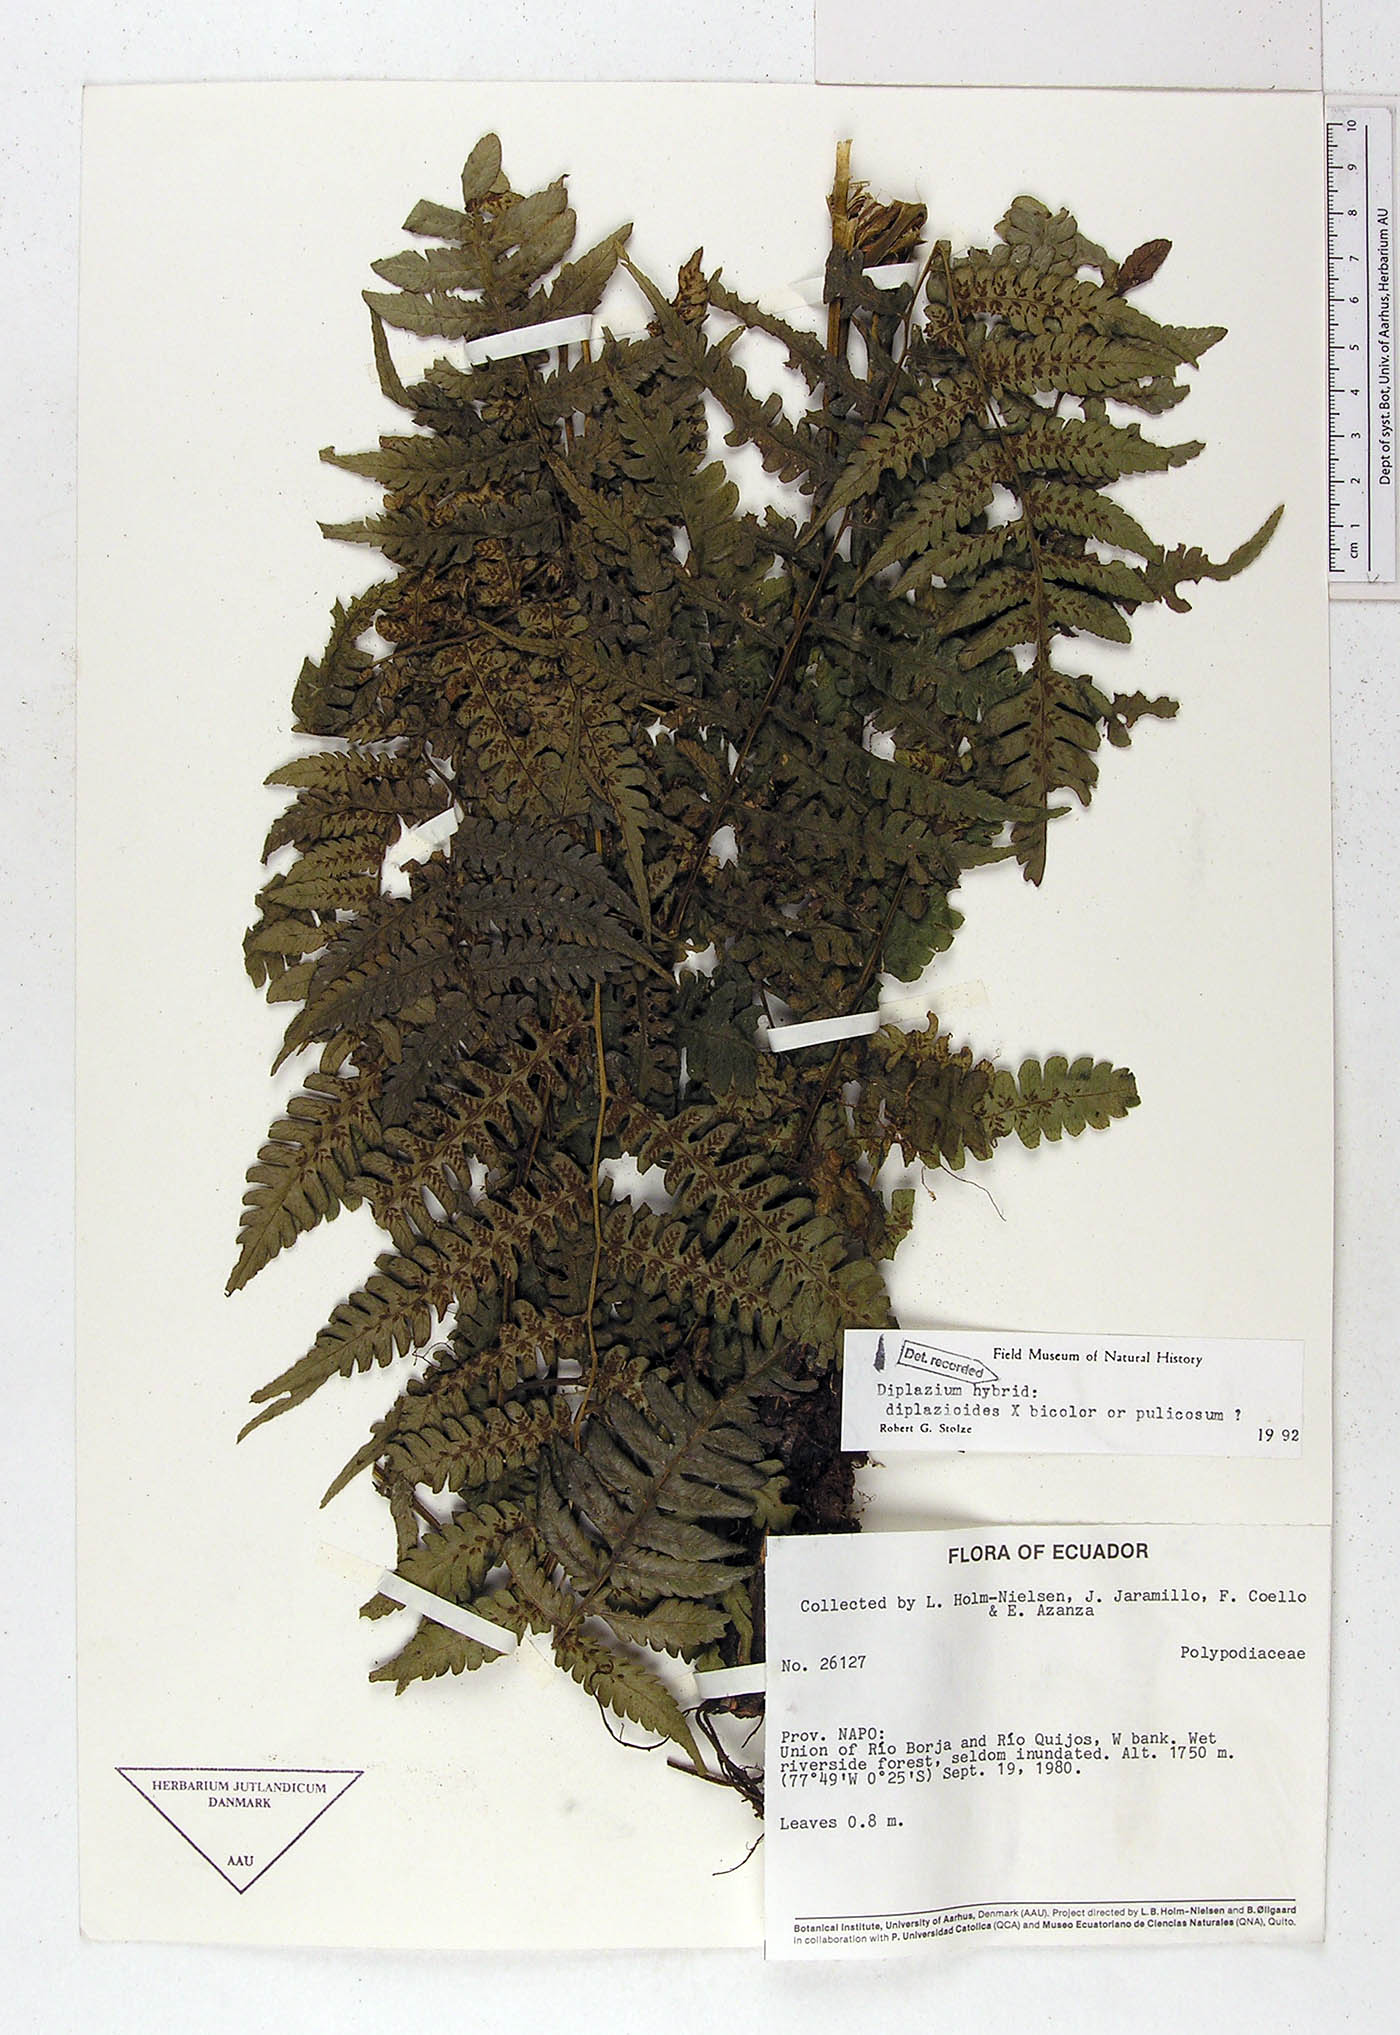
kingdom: Plantae
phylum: Tracheophyta
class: Polypodiopsida
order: Polypodiales
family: Polypodiaceae
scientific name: Polypodiaceae
